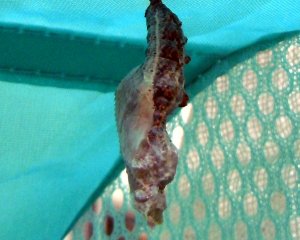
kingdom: Animalia
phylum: Arthropoda
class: Insecta
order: Lepidoptera
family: Nymphalidae
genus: Dione
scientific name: Dione vanillae
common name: Gulf Fritillary
